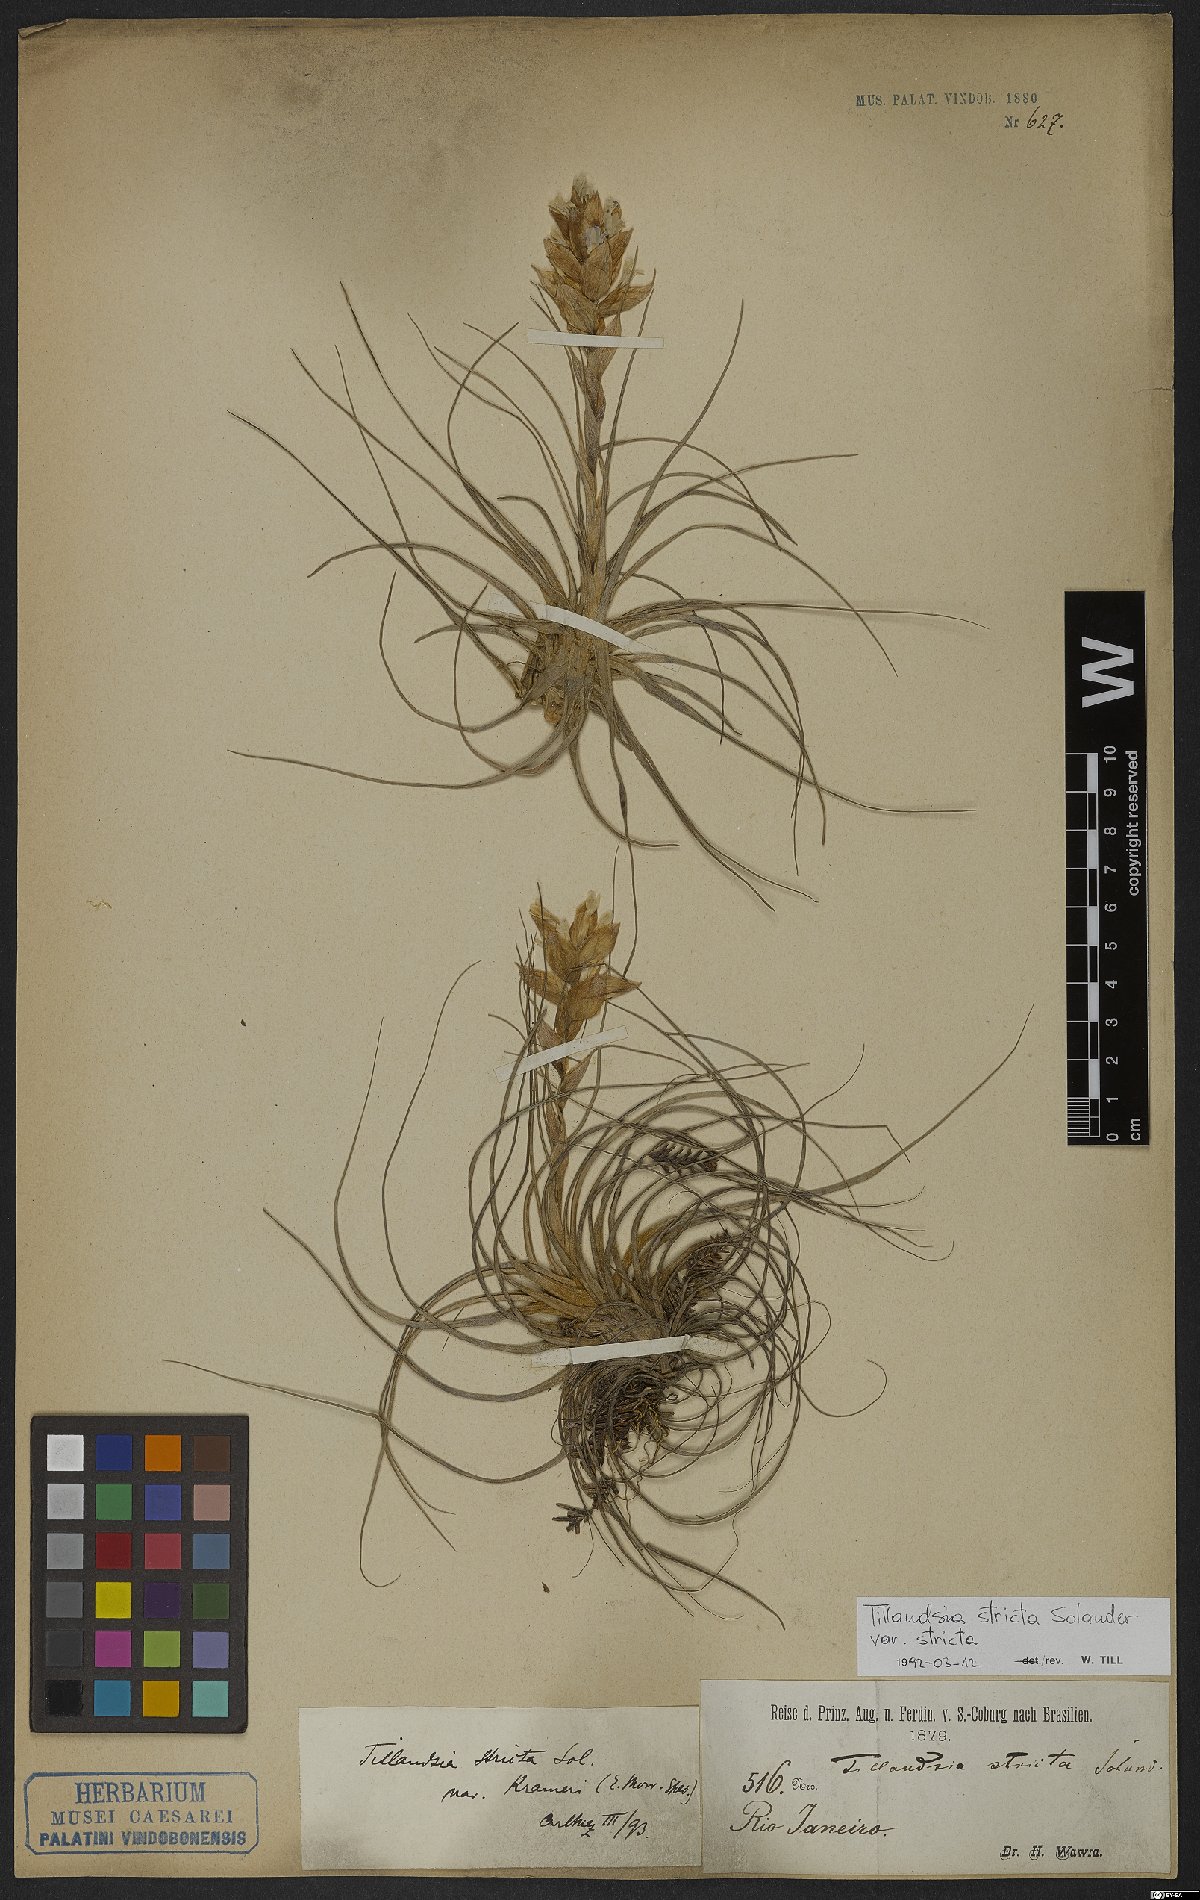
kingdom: Plantae
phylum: Tracheophyta
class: Liliopsida
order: Poales
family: Bromeliaceae
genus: Tillandsia
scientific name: Tillandsia stricta
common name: Airplant
